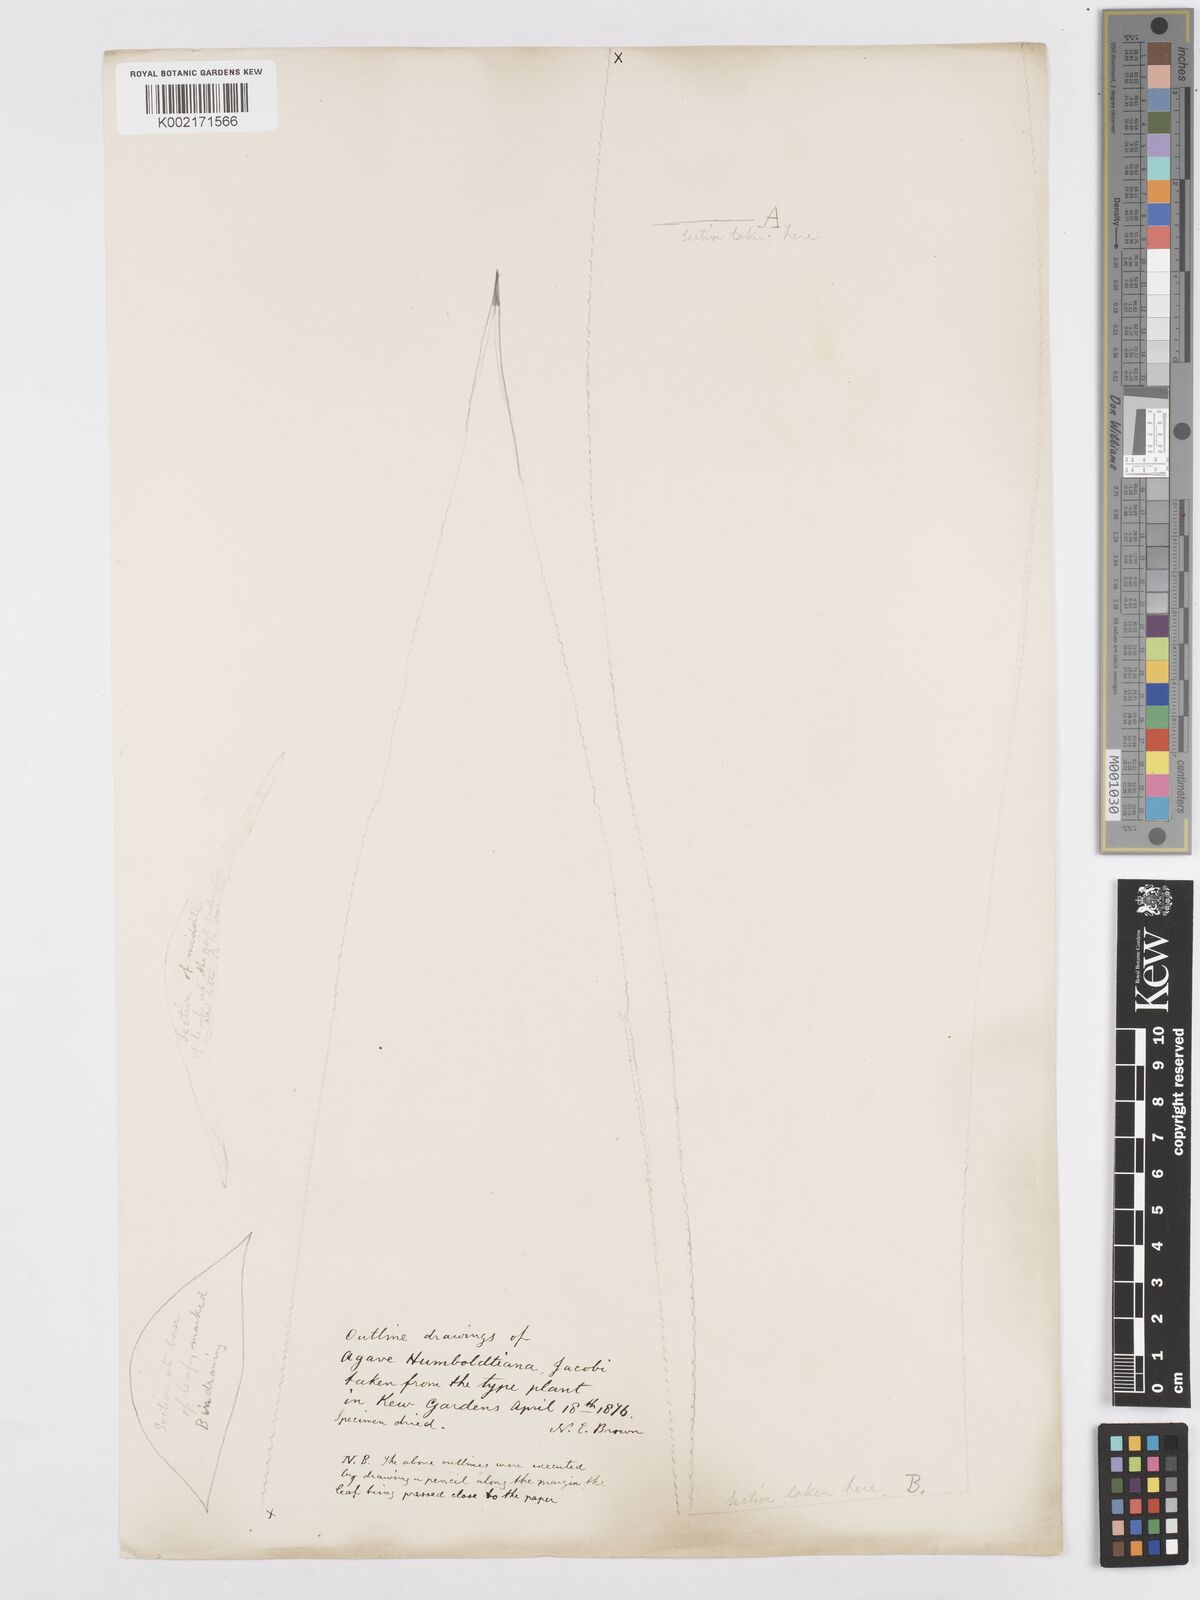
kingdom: Plantae
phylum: Tracheophyta
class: Liliopsida
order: Asparagales
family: Asparagaceae
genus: Agave
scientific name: Agave humboldtiana
